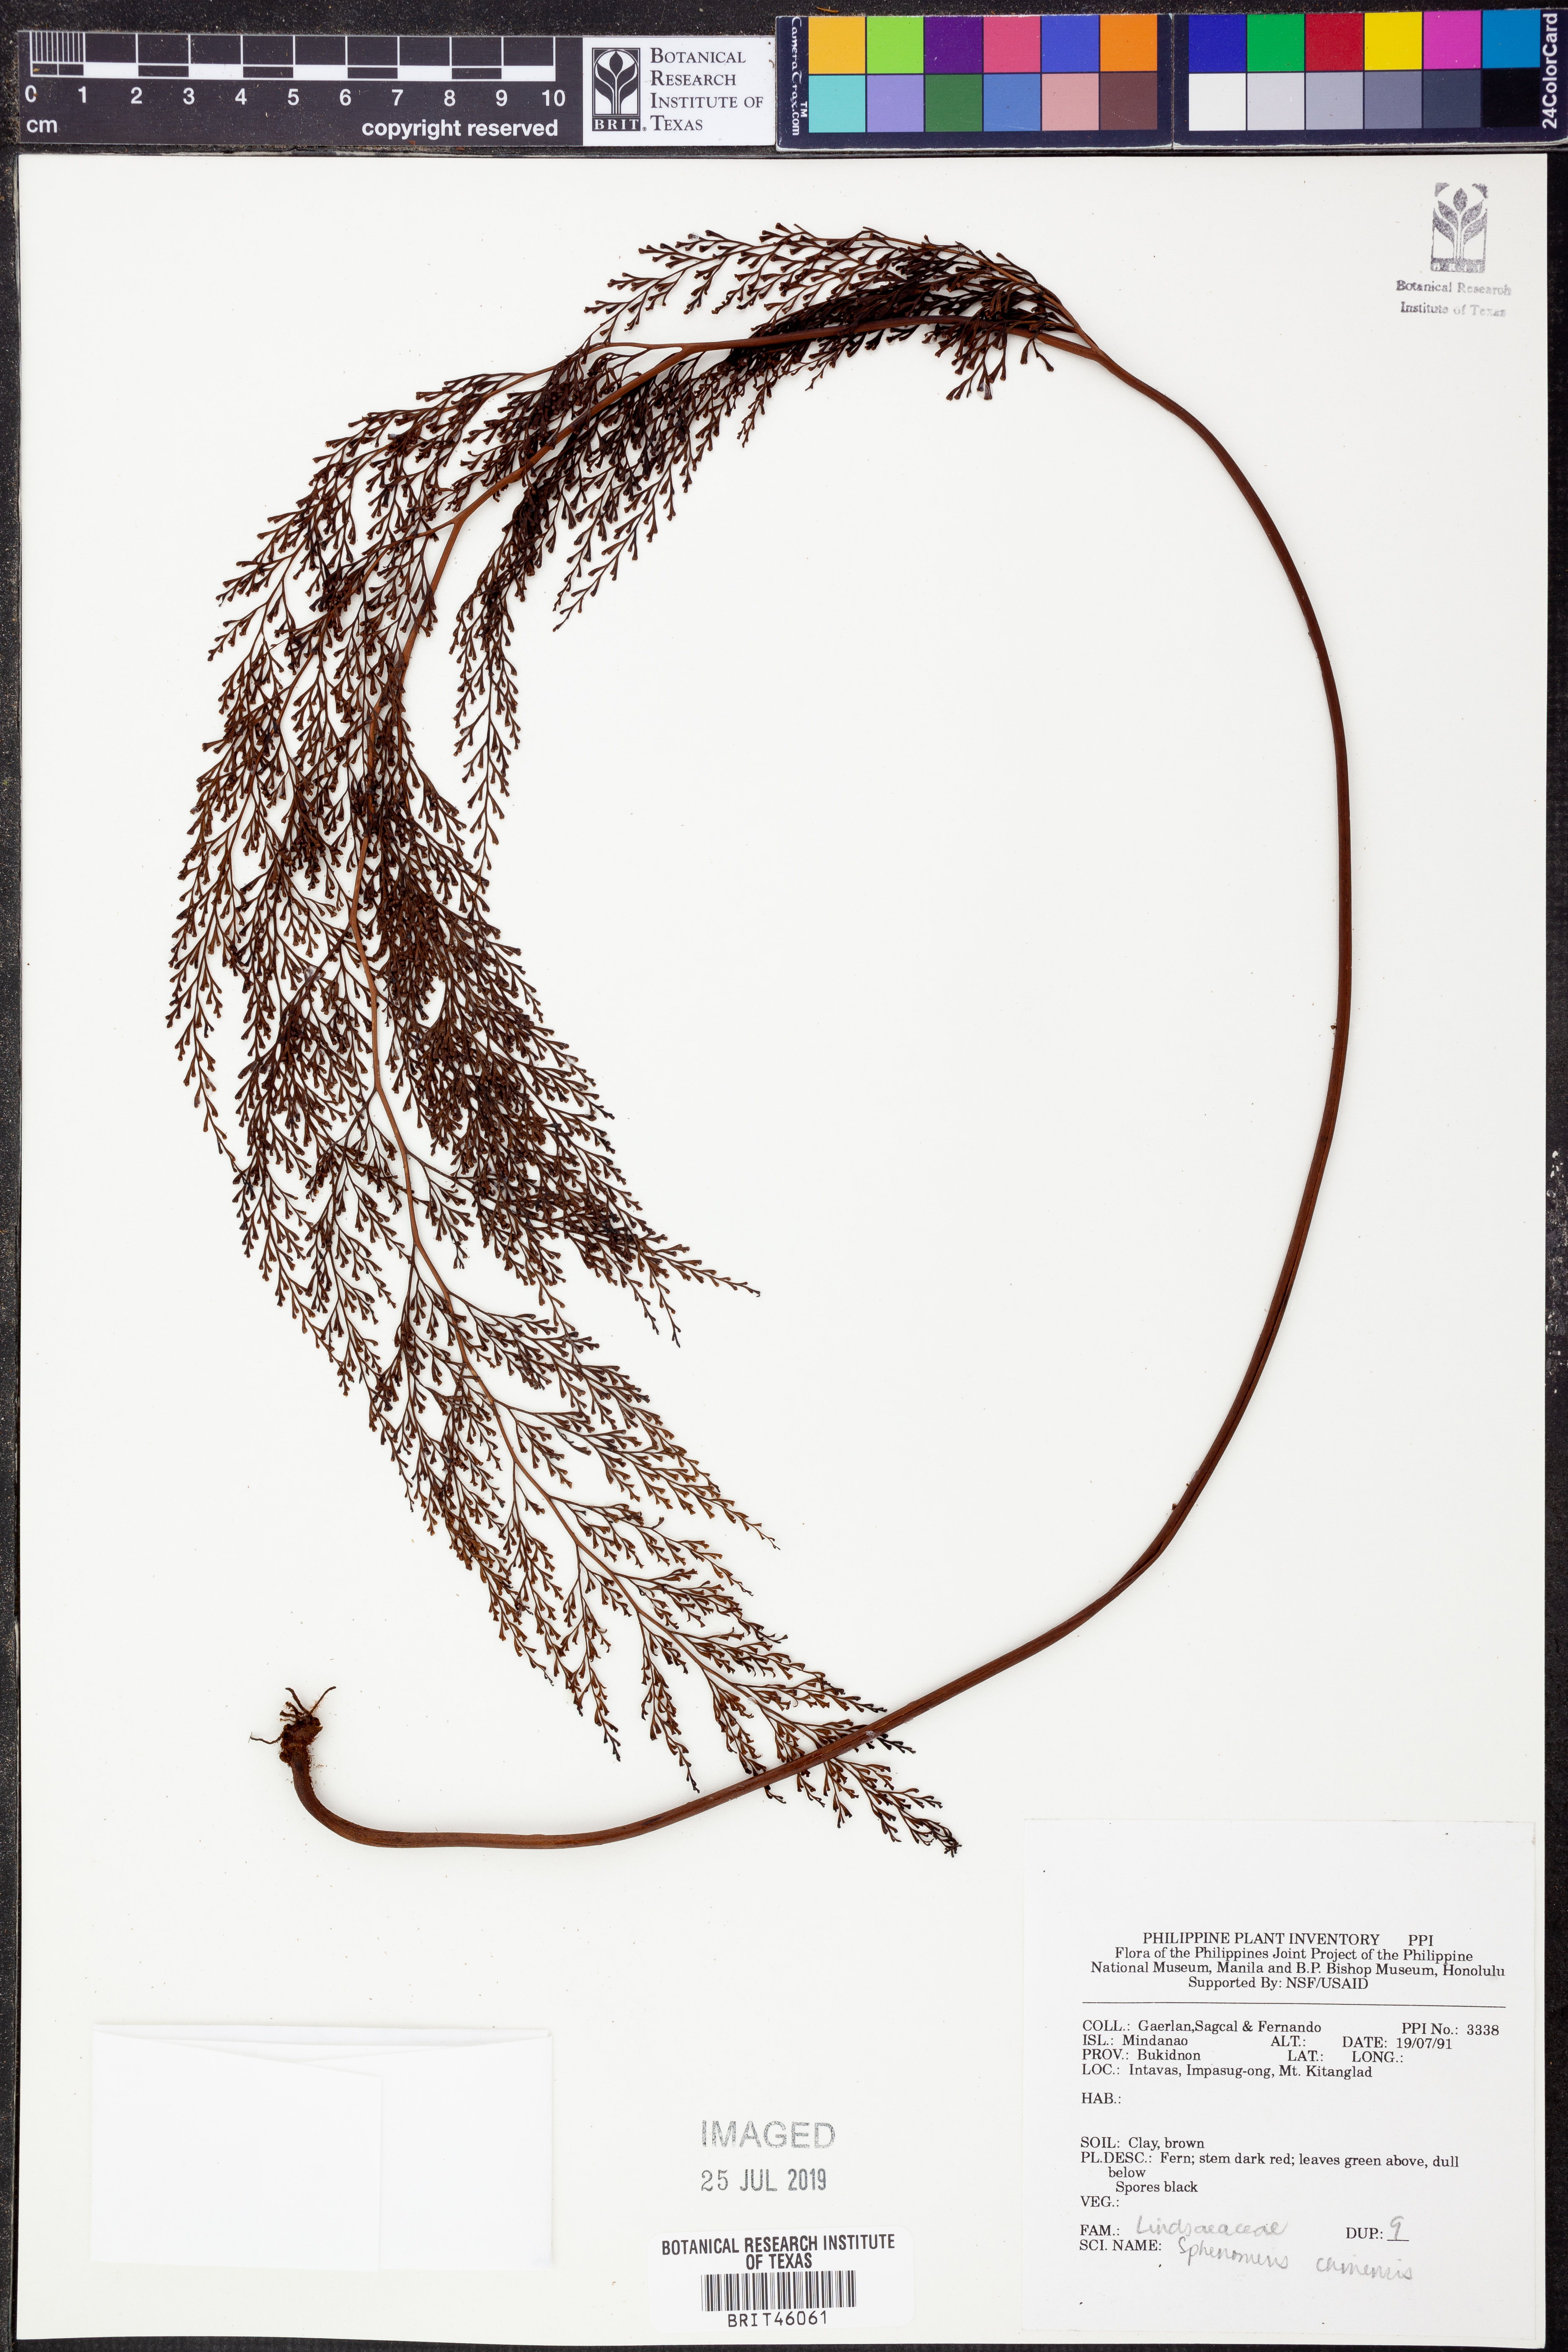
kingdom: Plantae
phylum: Tracheophyta
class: Polypodiopsida
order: Polypodiales
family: Lindsaeaceae
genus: Odontosoria
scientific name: Odontosoria chinensis
